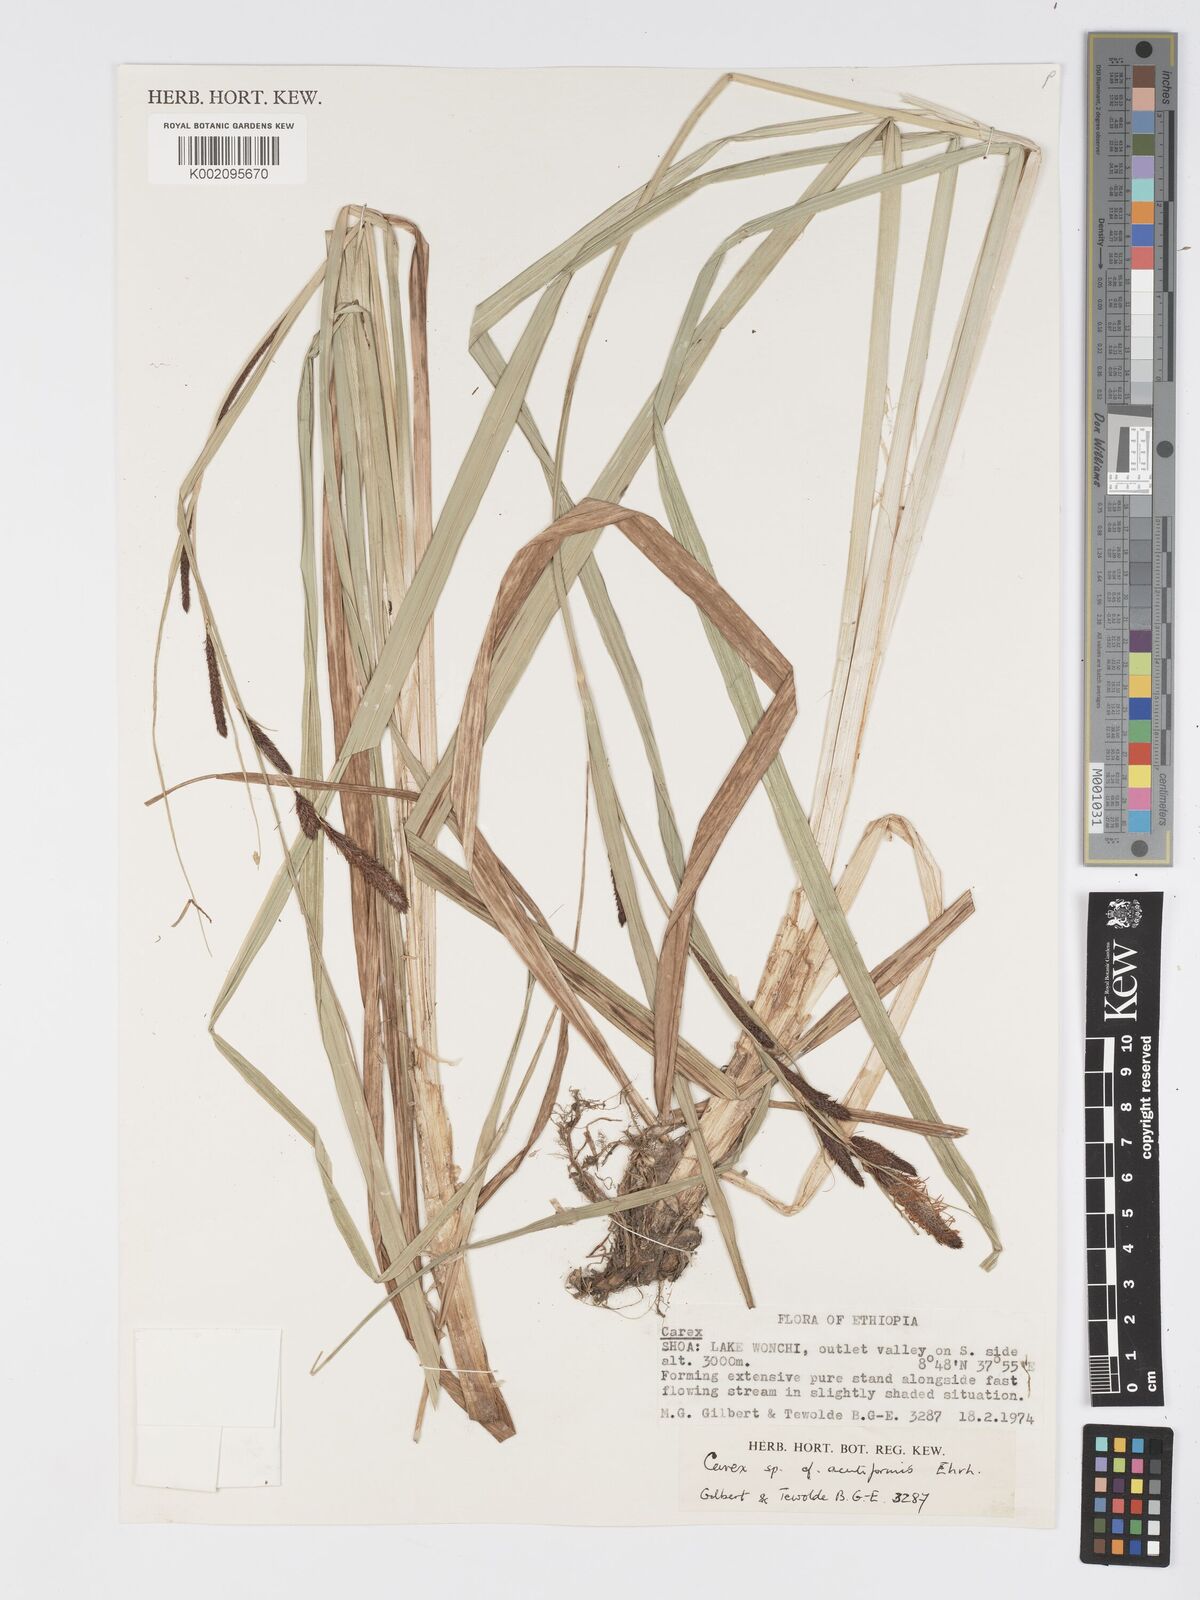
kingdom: Plantae
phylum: Tracheophyta
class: Liliopsida
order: Poales
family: Cyperaceae
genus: Carex
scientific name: Carex acutiformis
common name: Lesser pond-sedge
